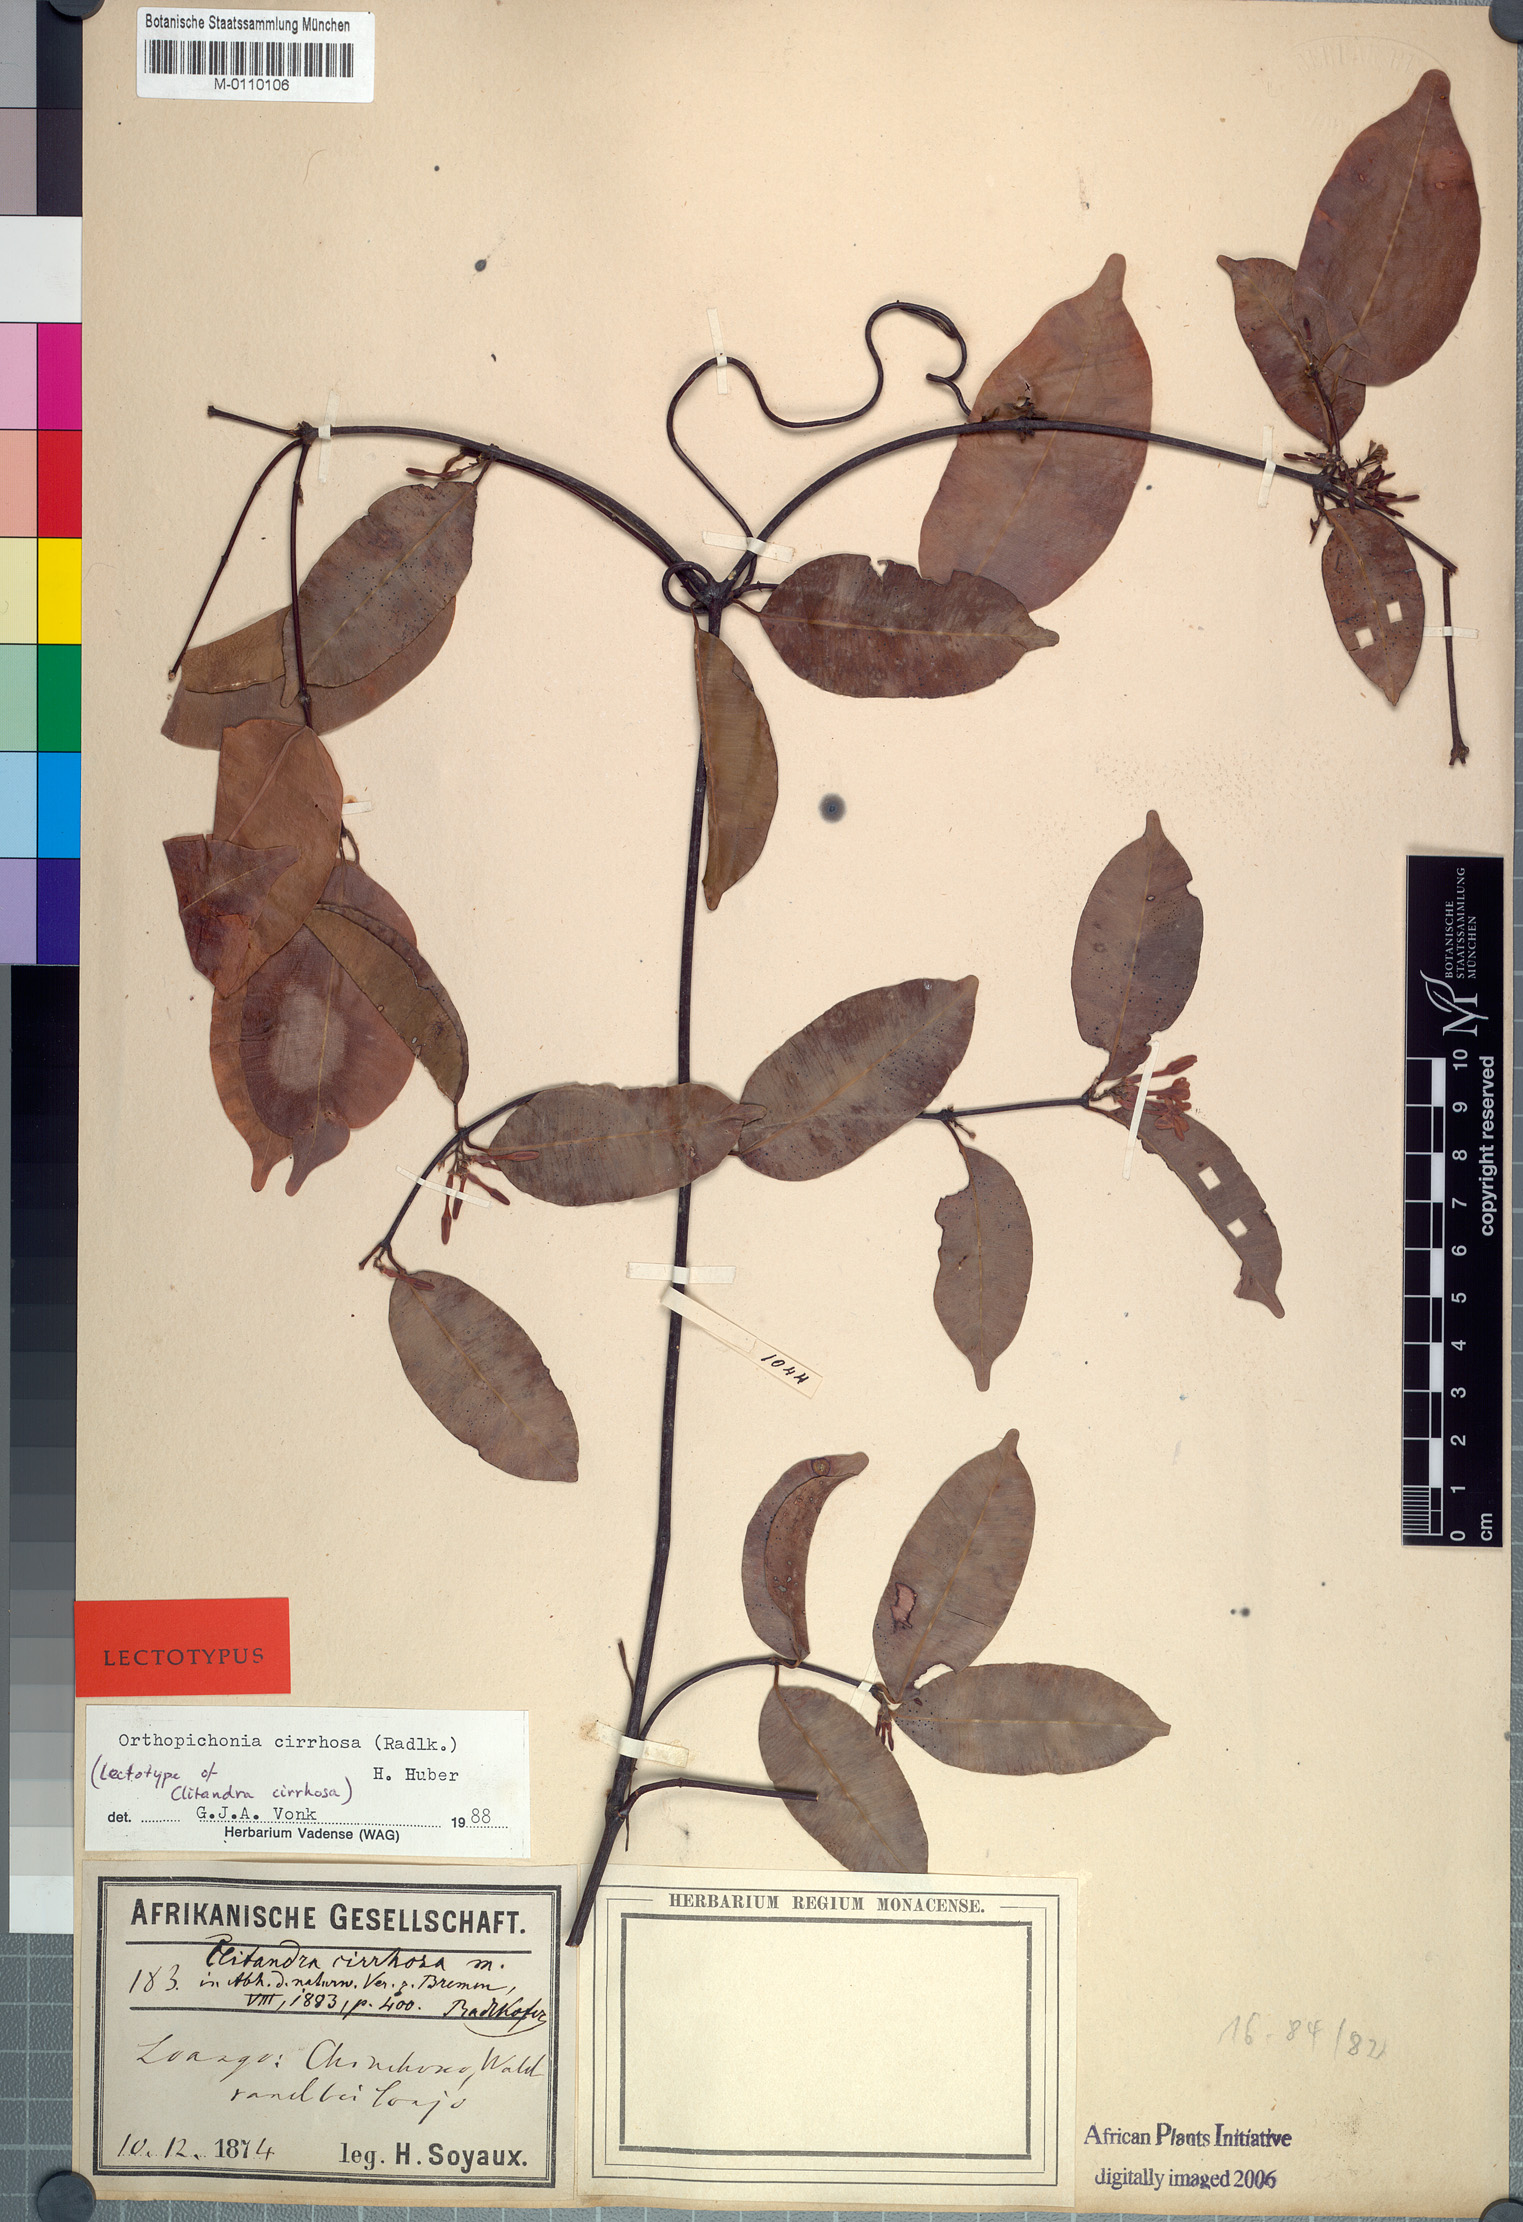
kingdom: Plantae
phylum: Tracheophyta
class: Magnoliopsida
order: Gentianales
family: Apocynaceae
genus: Orthopichonia
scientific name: Orthopichonia cirrhosa
